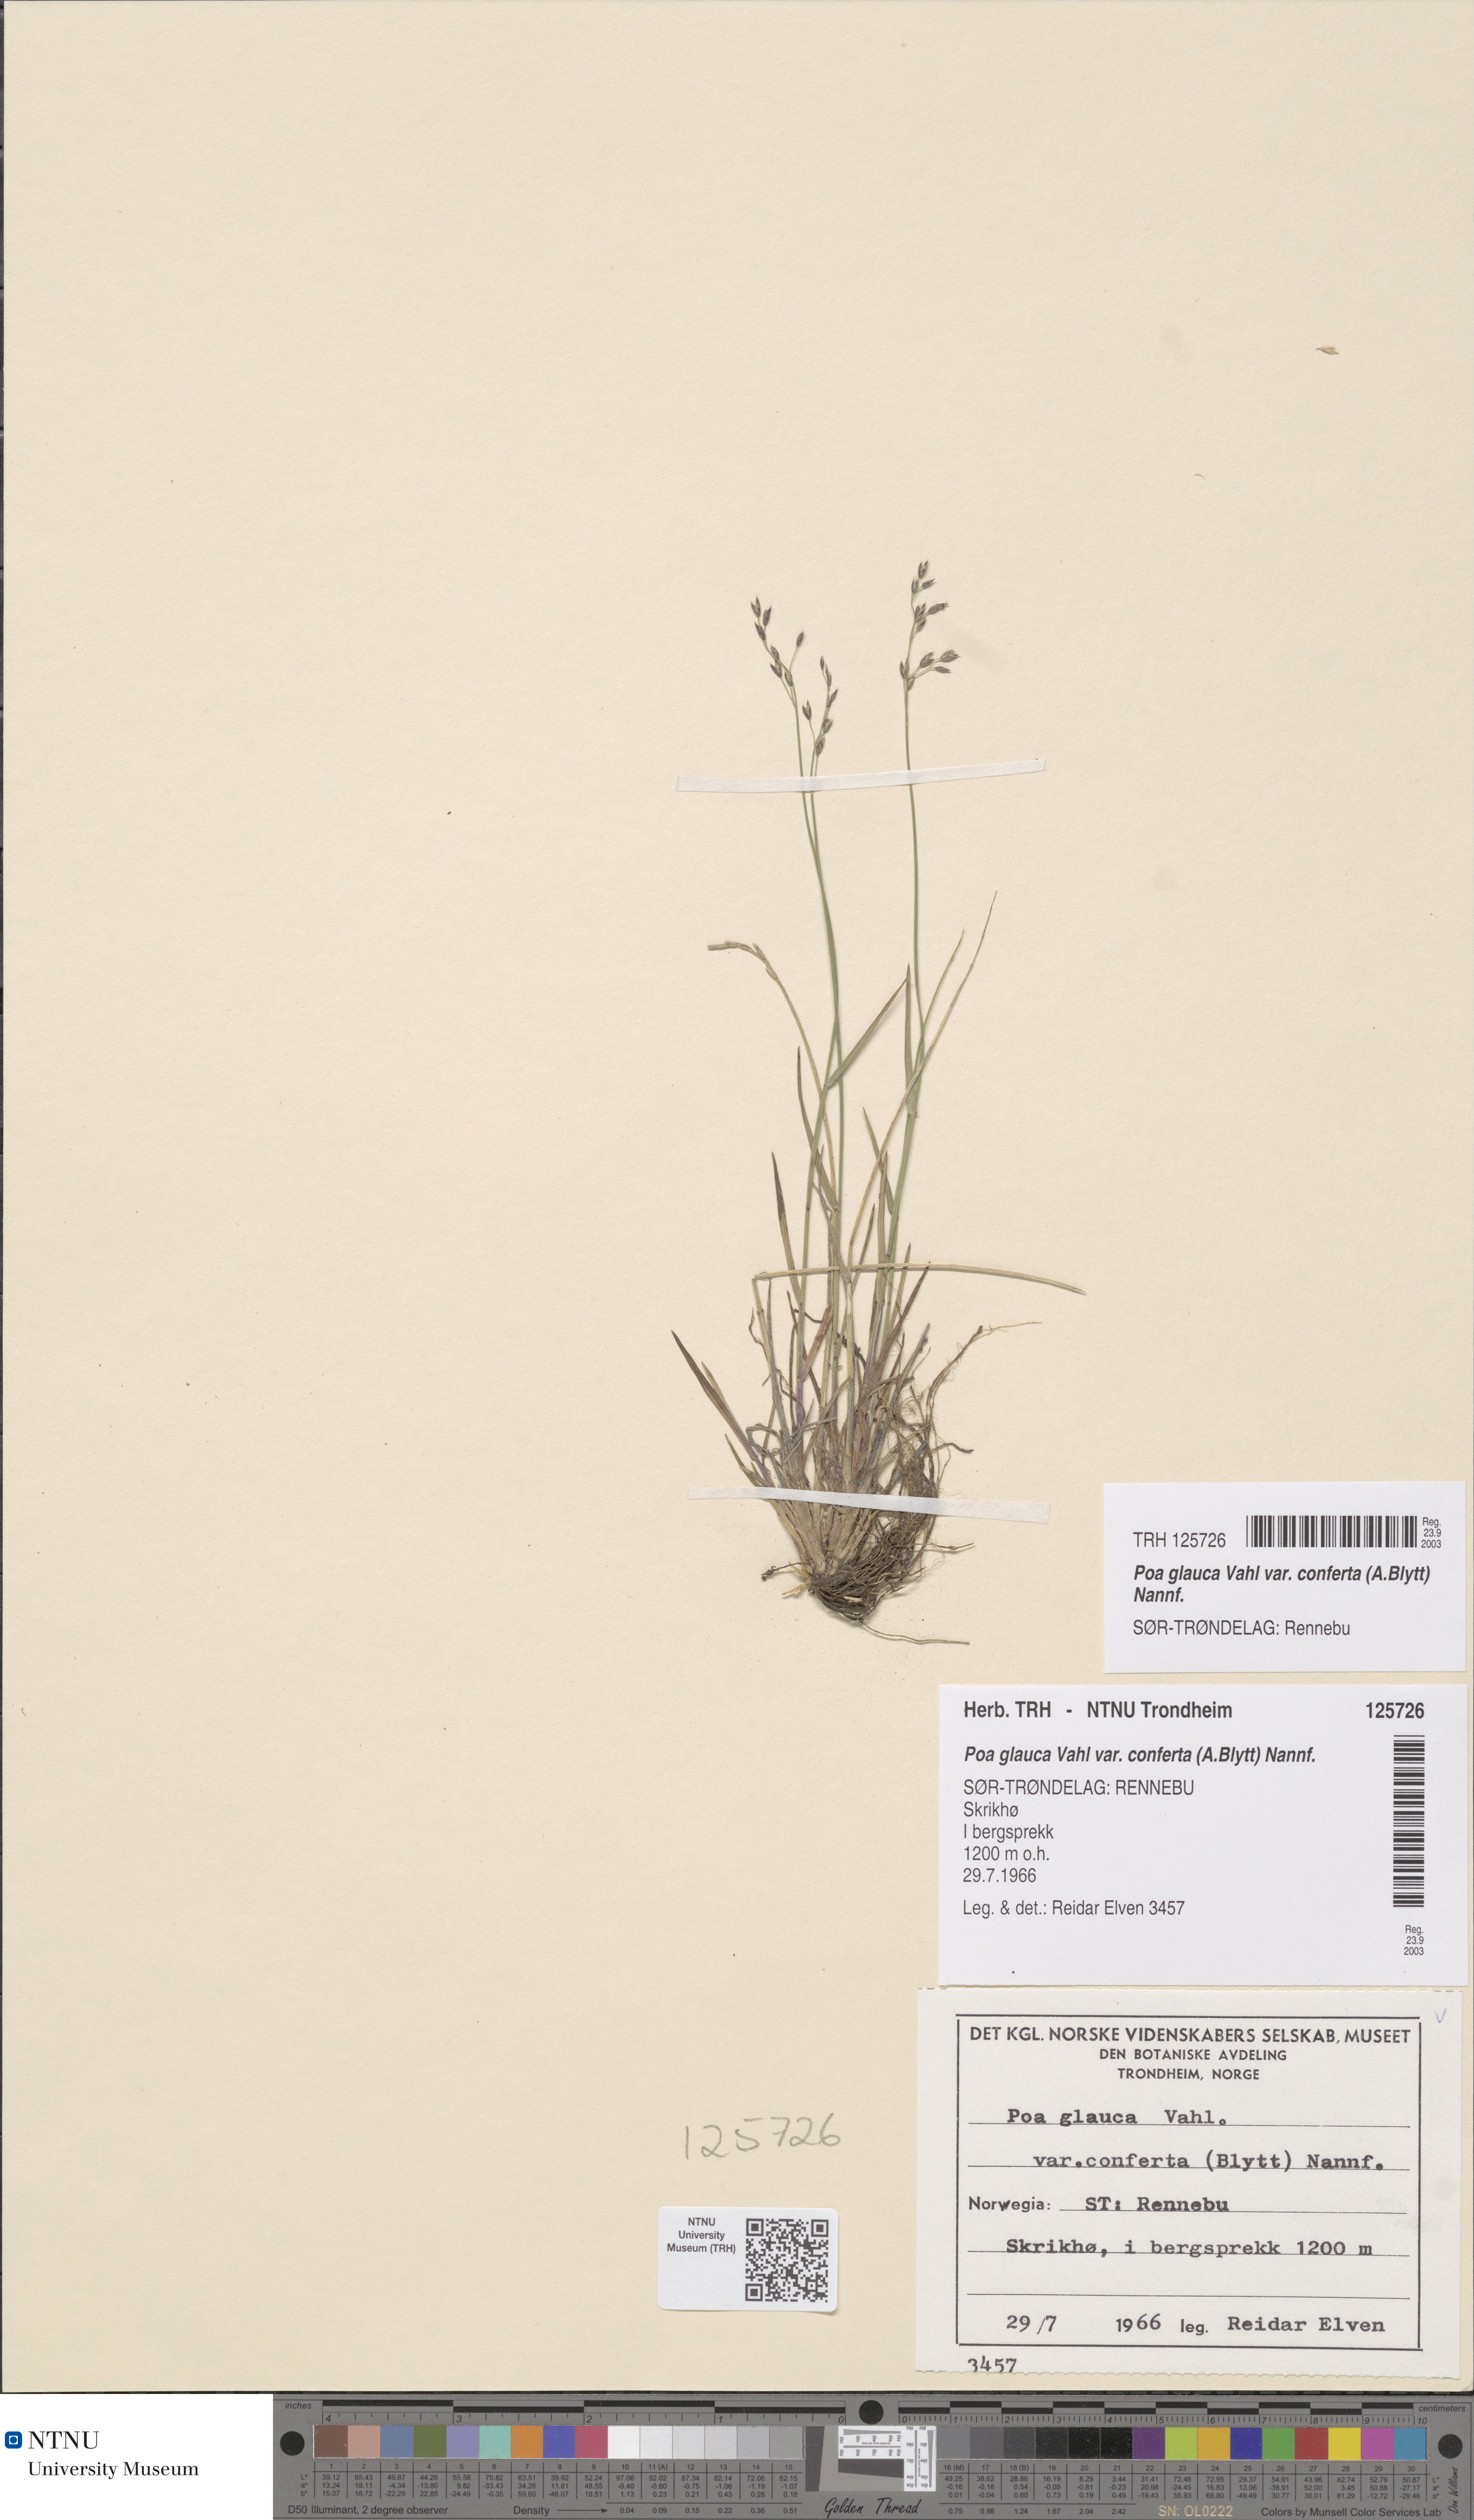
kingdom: Plantae
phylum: Tracheophyta
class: Liliopsida
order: Poales
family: Poaceae
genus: Poa
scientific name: Poa glauca
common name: Glaucous bluegrass
